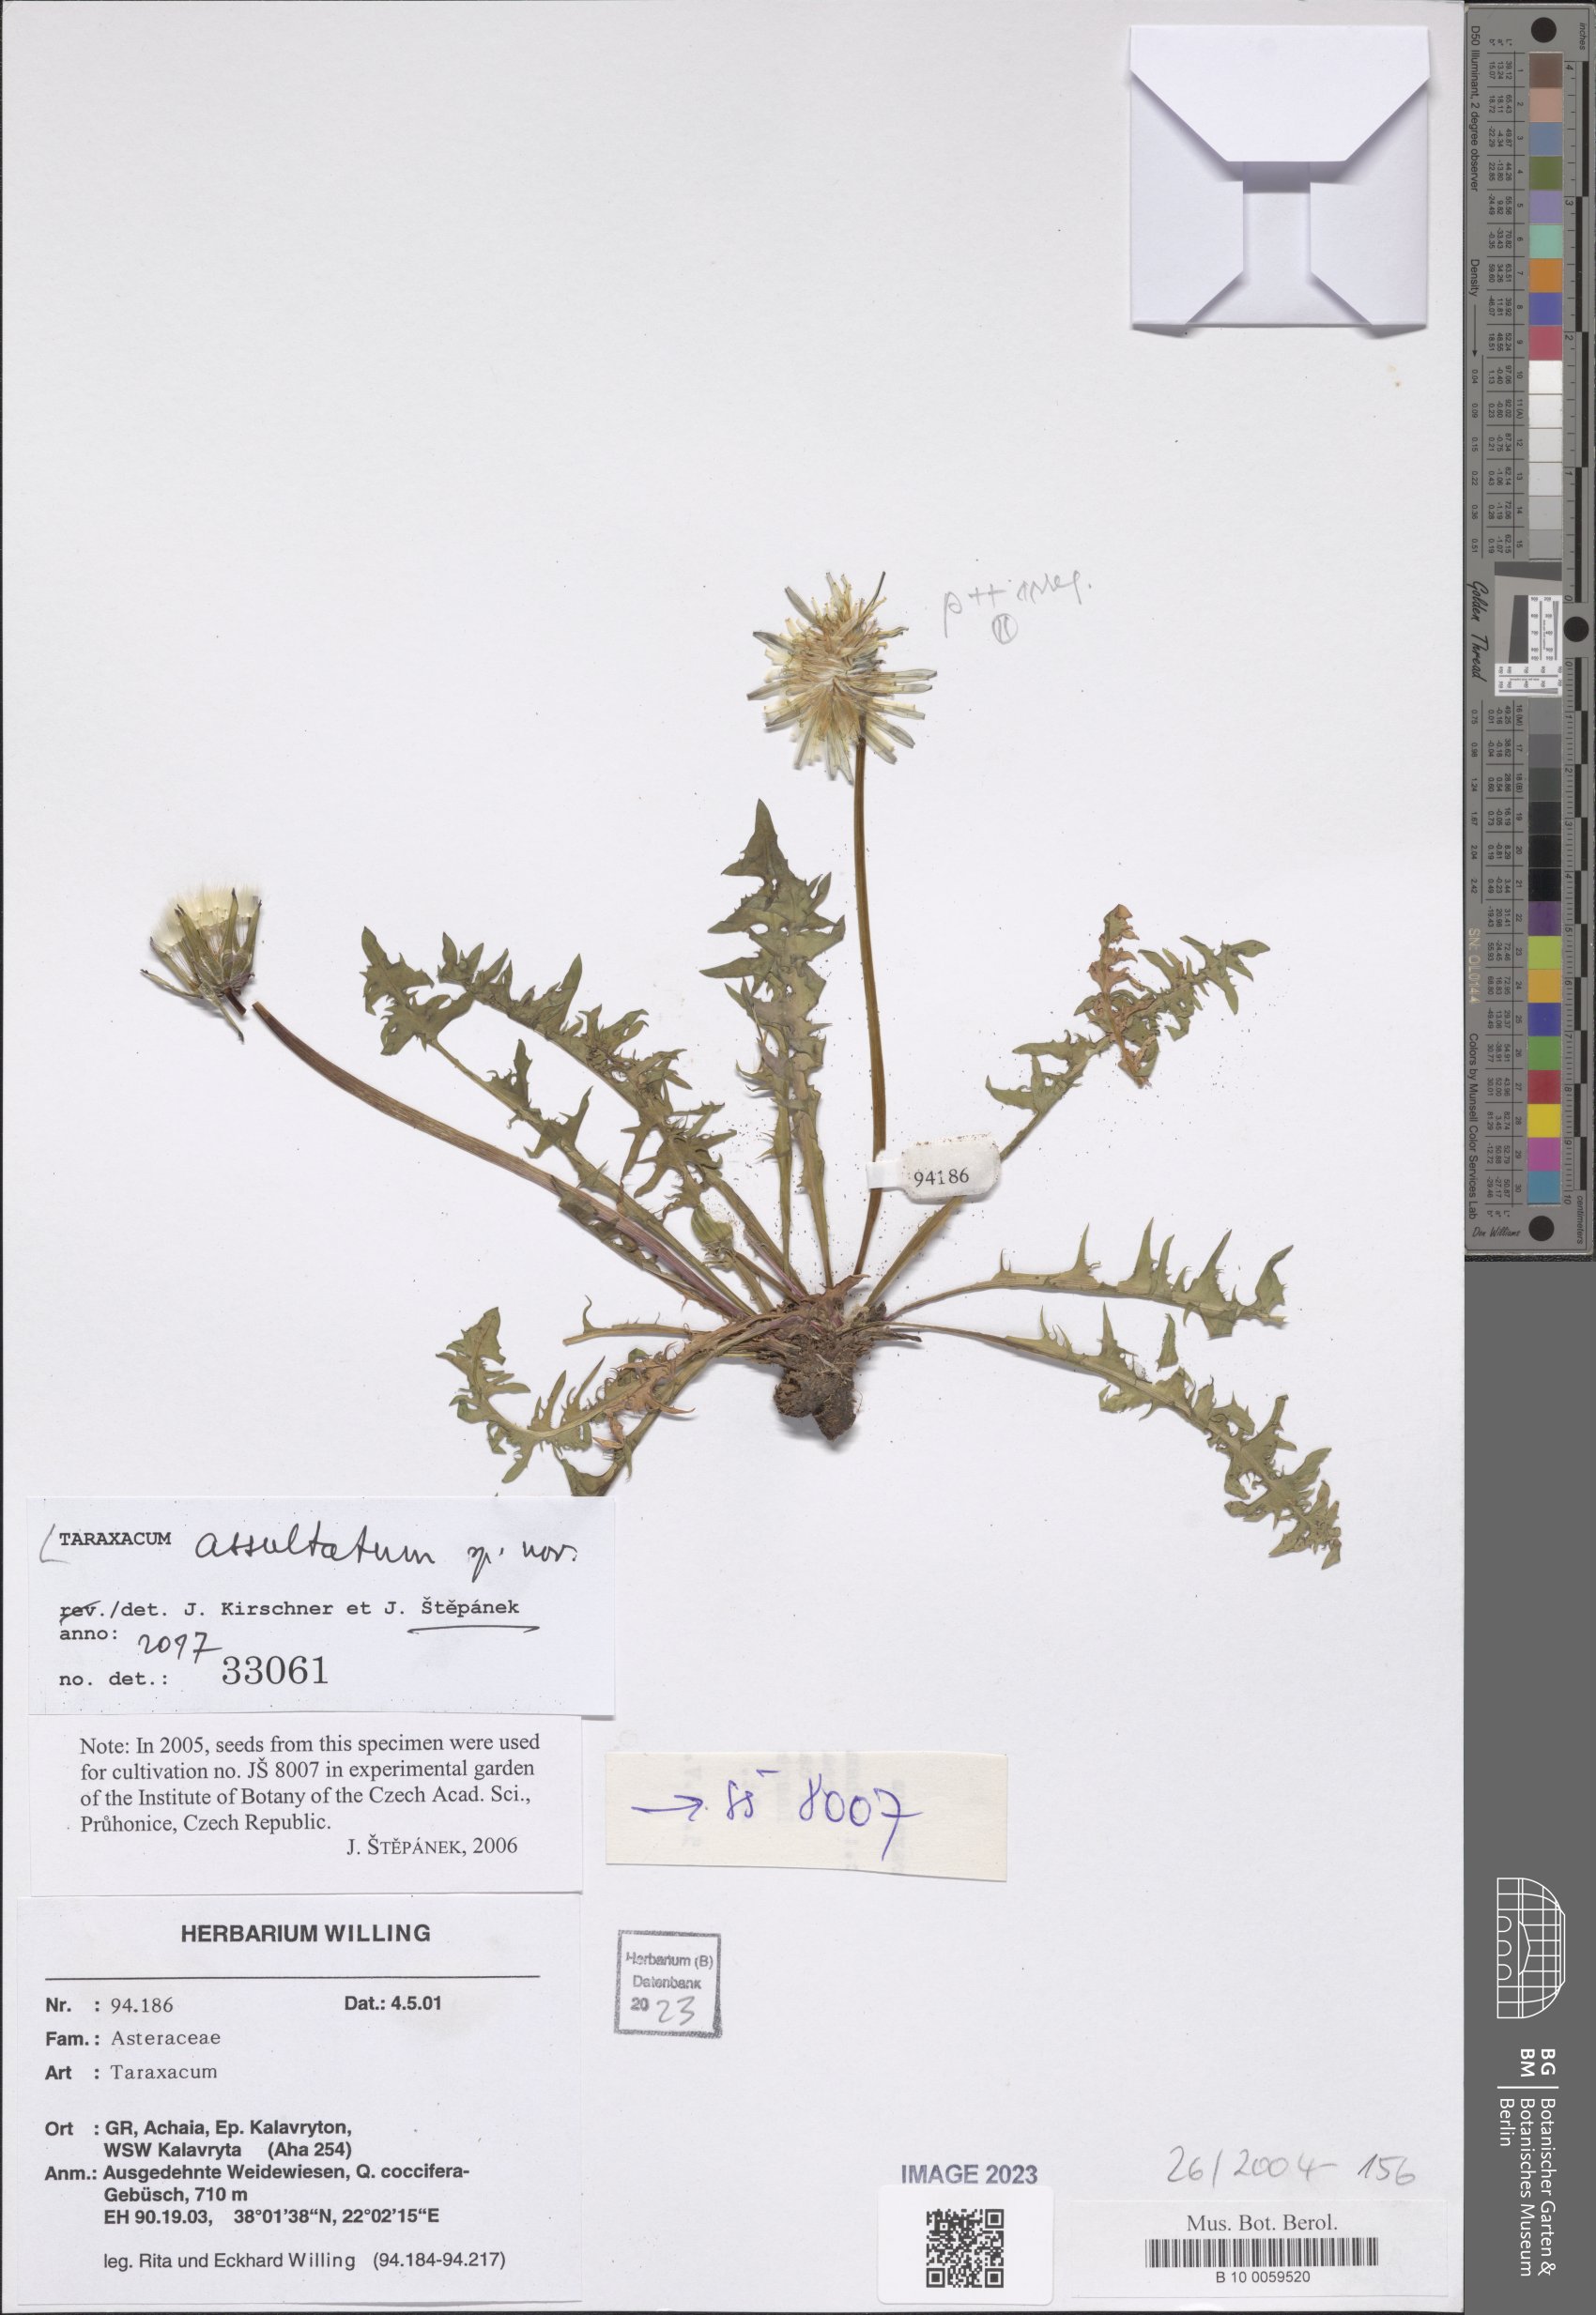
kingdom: Plantae
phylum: Tracheophyta
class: Magnoliopsida
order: Asterales
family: Asteraceae
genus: Taraxacum
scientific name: Taraxacum puolannei
